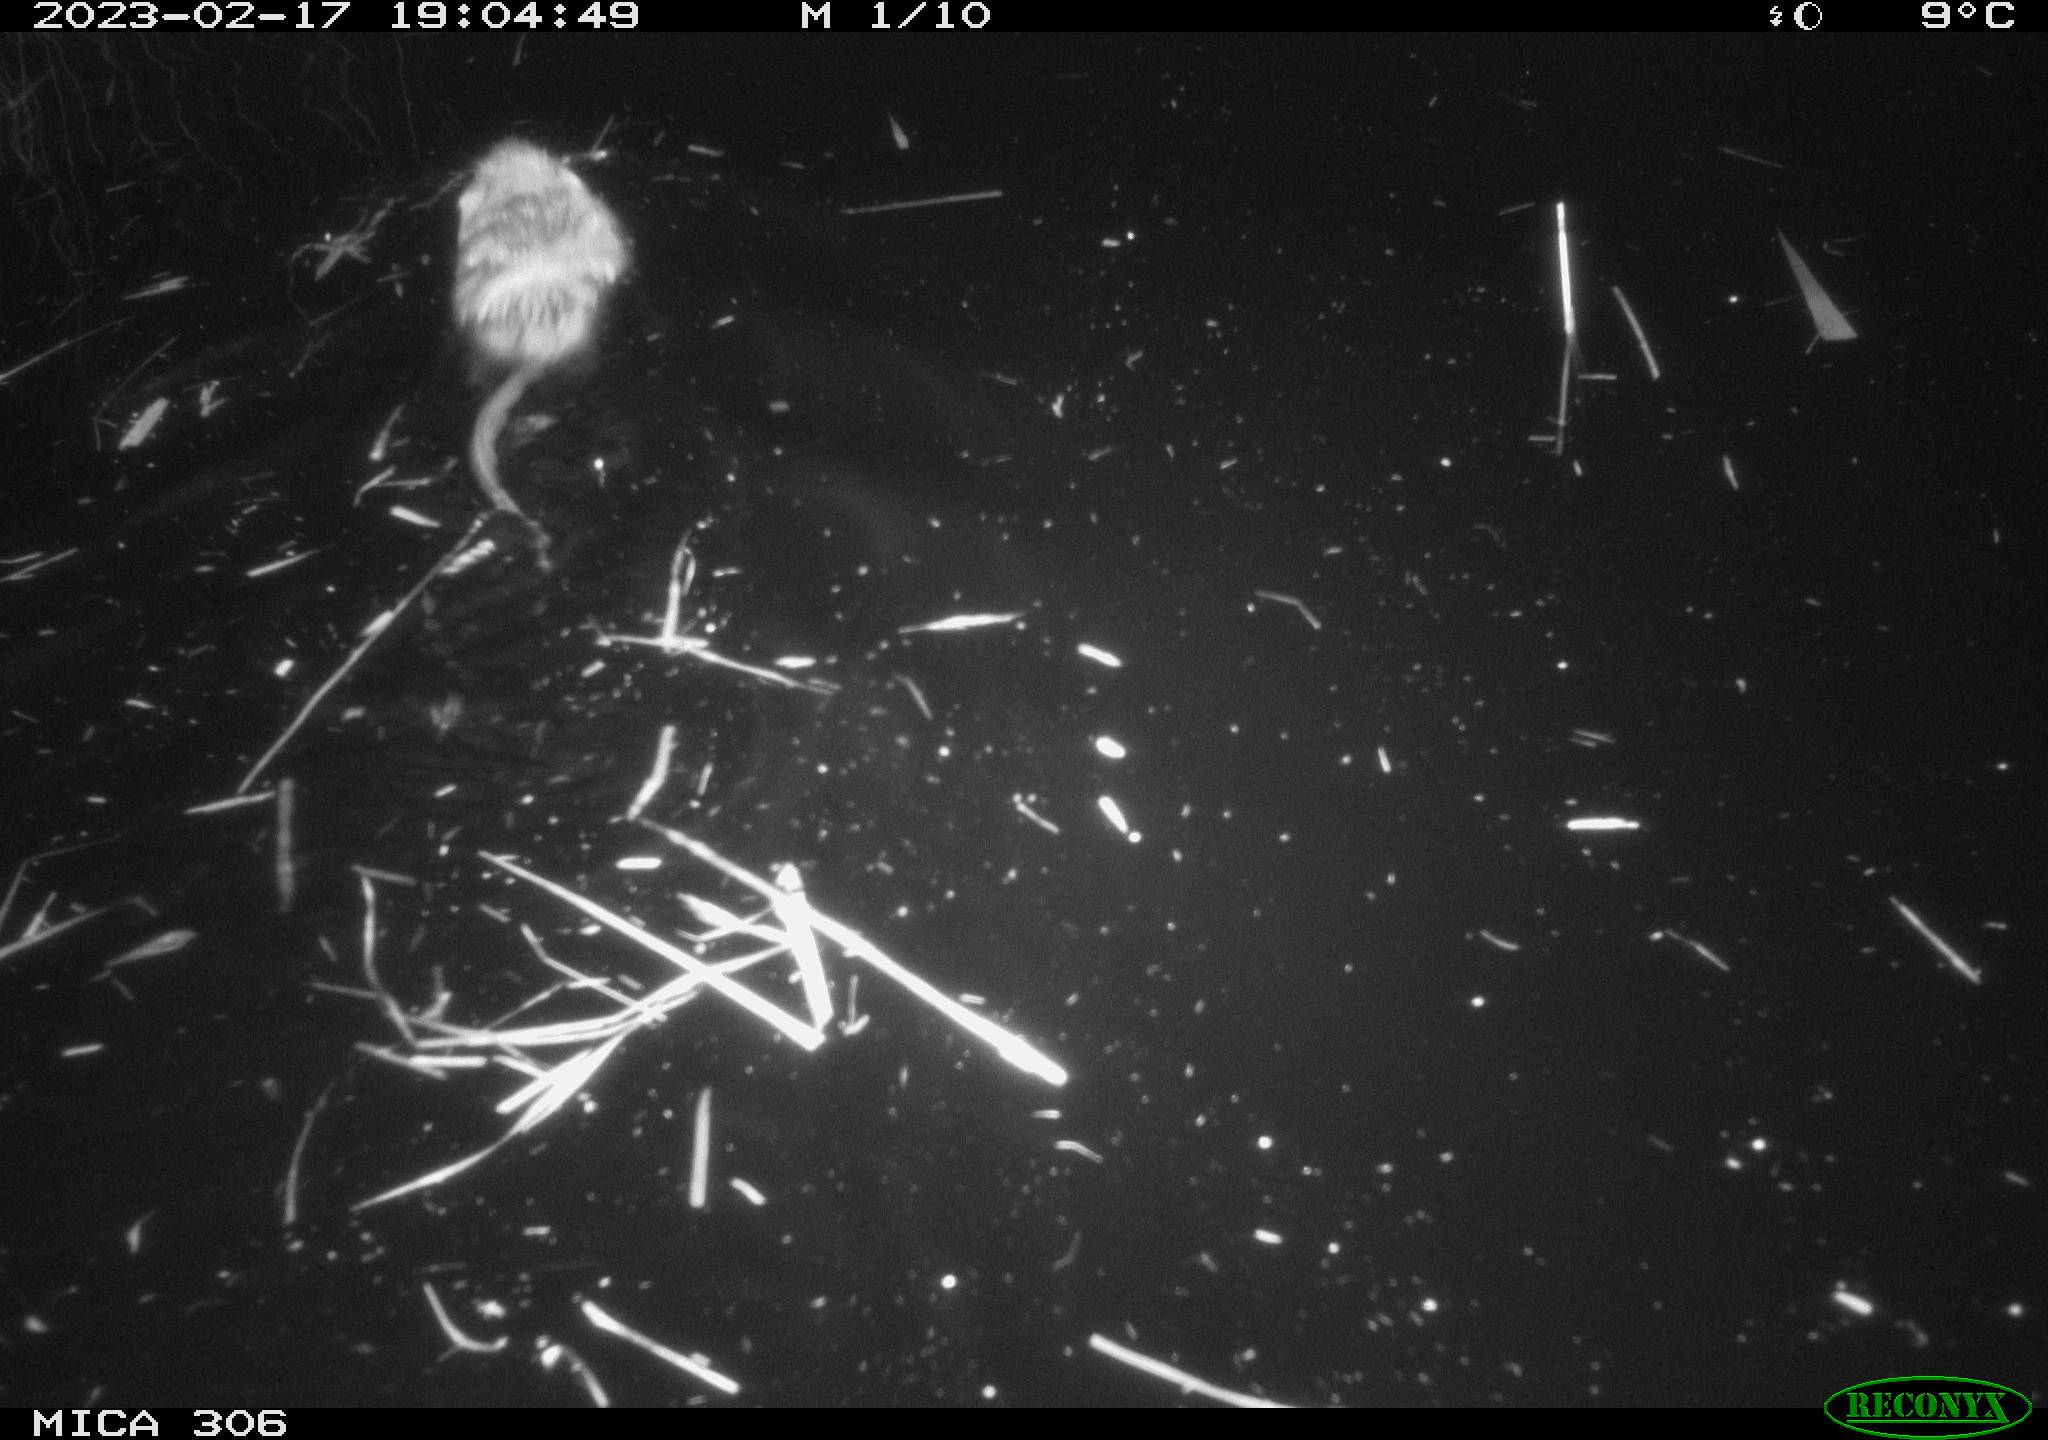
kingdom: Animalia
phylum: Chordata
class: Mammalia
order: Rodentia
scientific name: Rodentia
